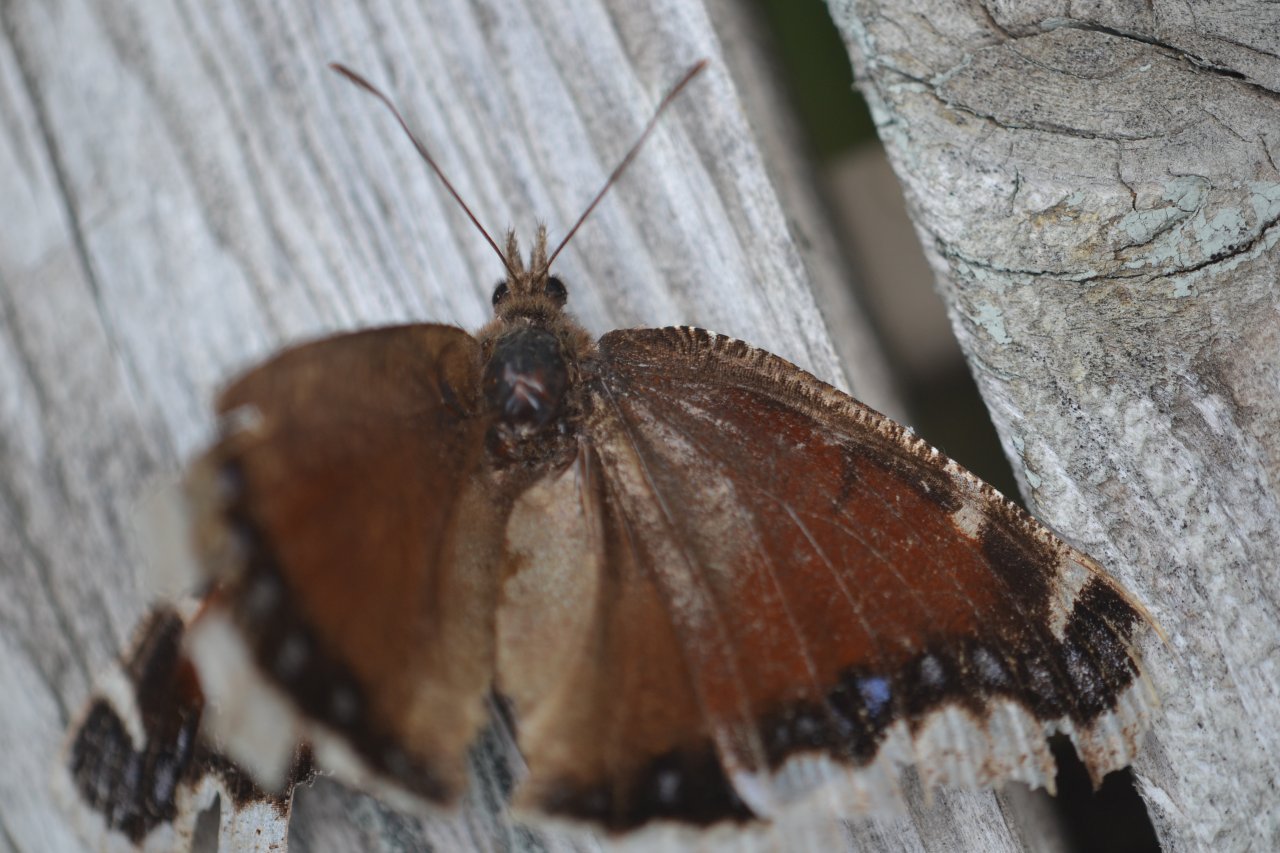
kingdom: Animalia
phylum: Arthropoda
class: Insecta
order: Lepidoptera
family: Nymphalidae
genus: Nymphalis
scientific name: Nymphalis antiopa
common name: Mourning Cloak
